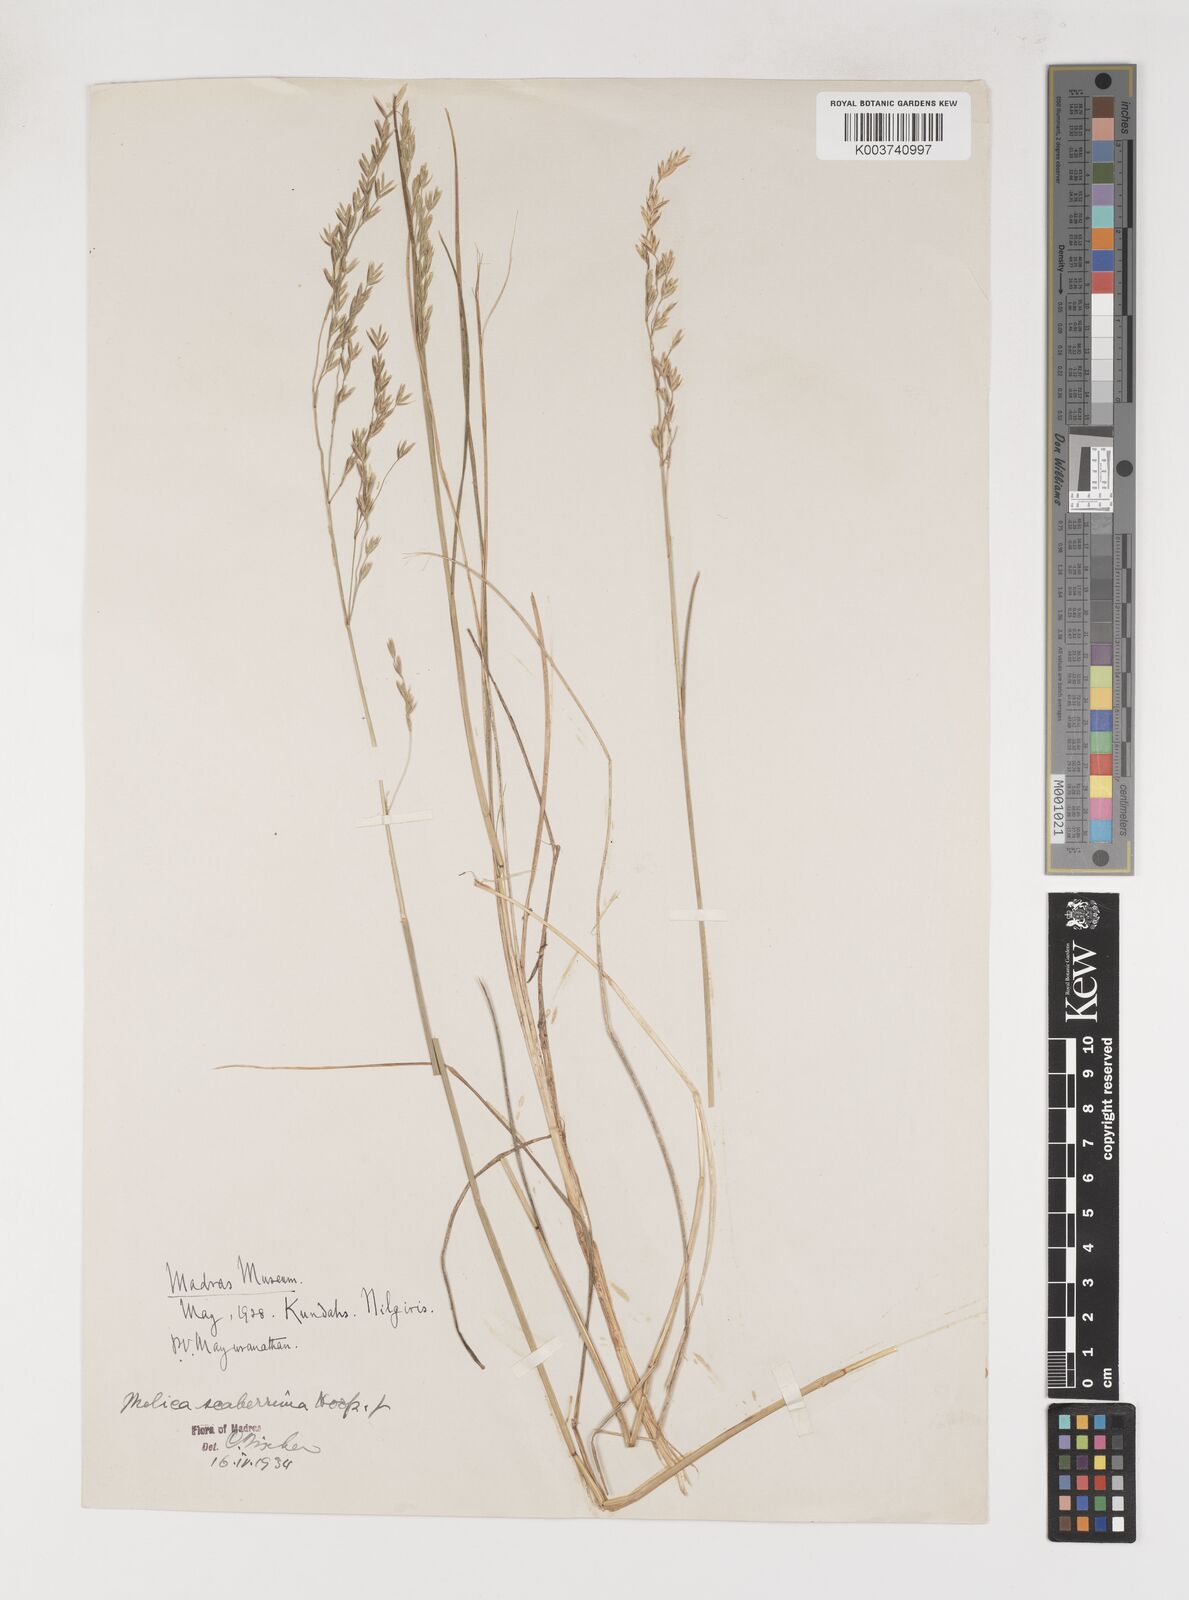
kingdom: Plantae
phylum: Tracheophyta
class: Liliopsida
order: Poales
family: Poaceae
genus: Poa
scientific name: Poa gamblei
